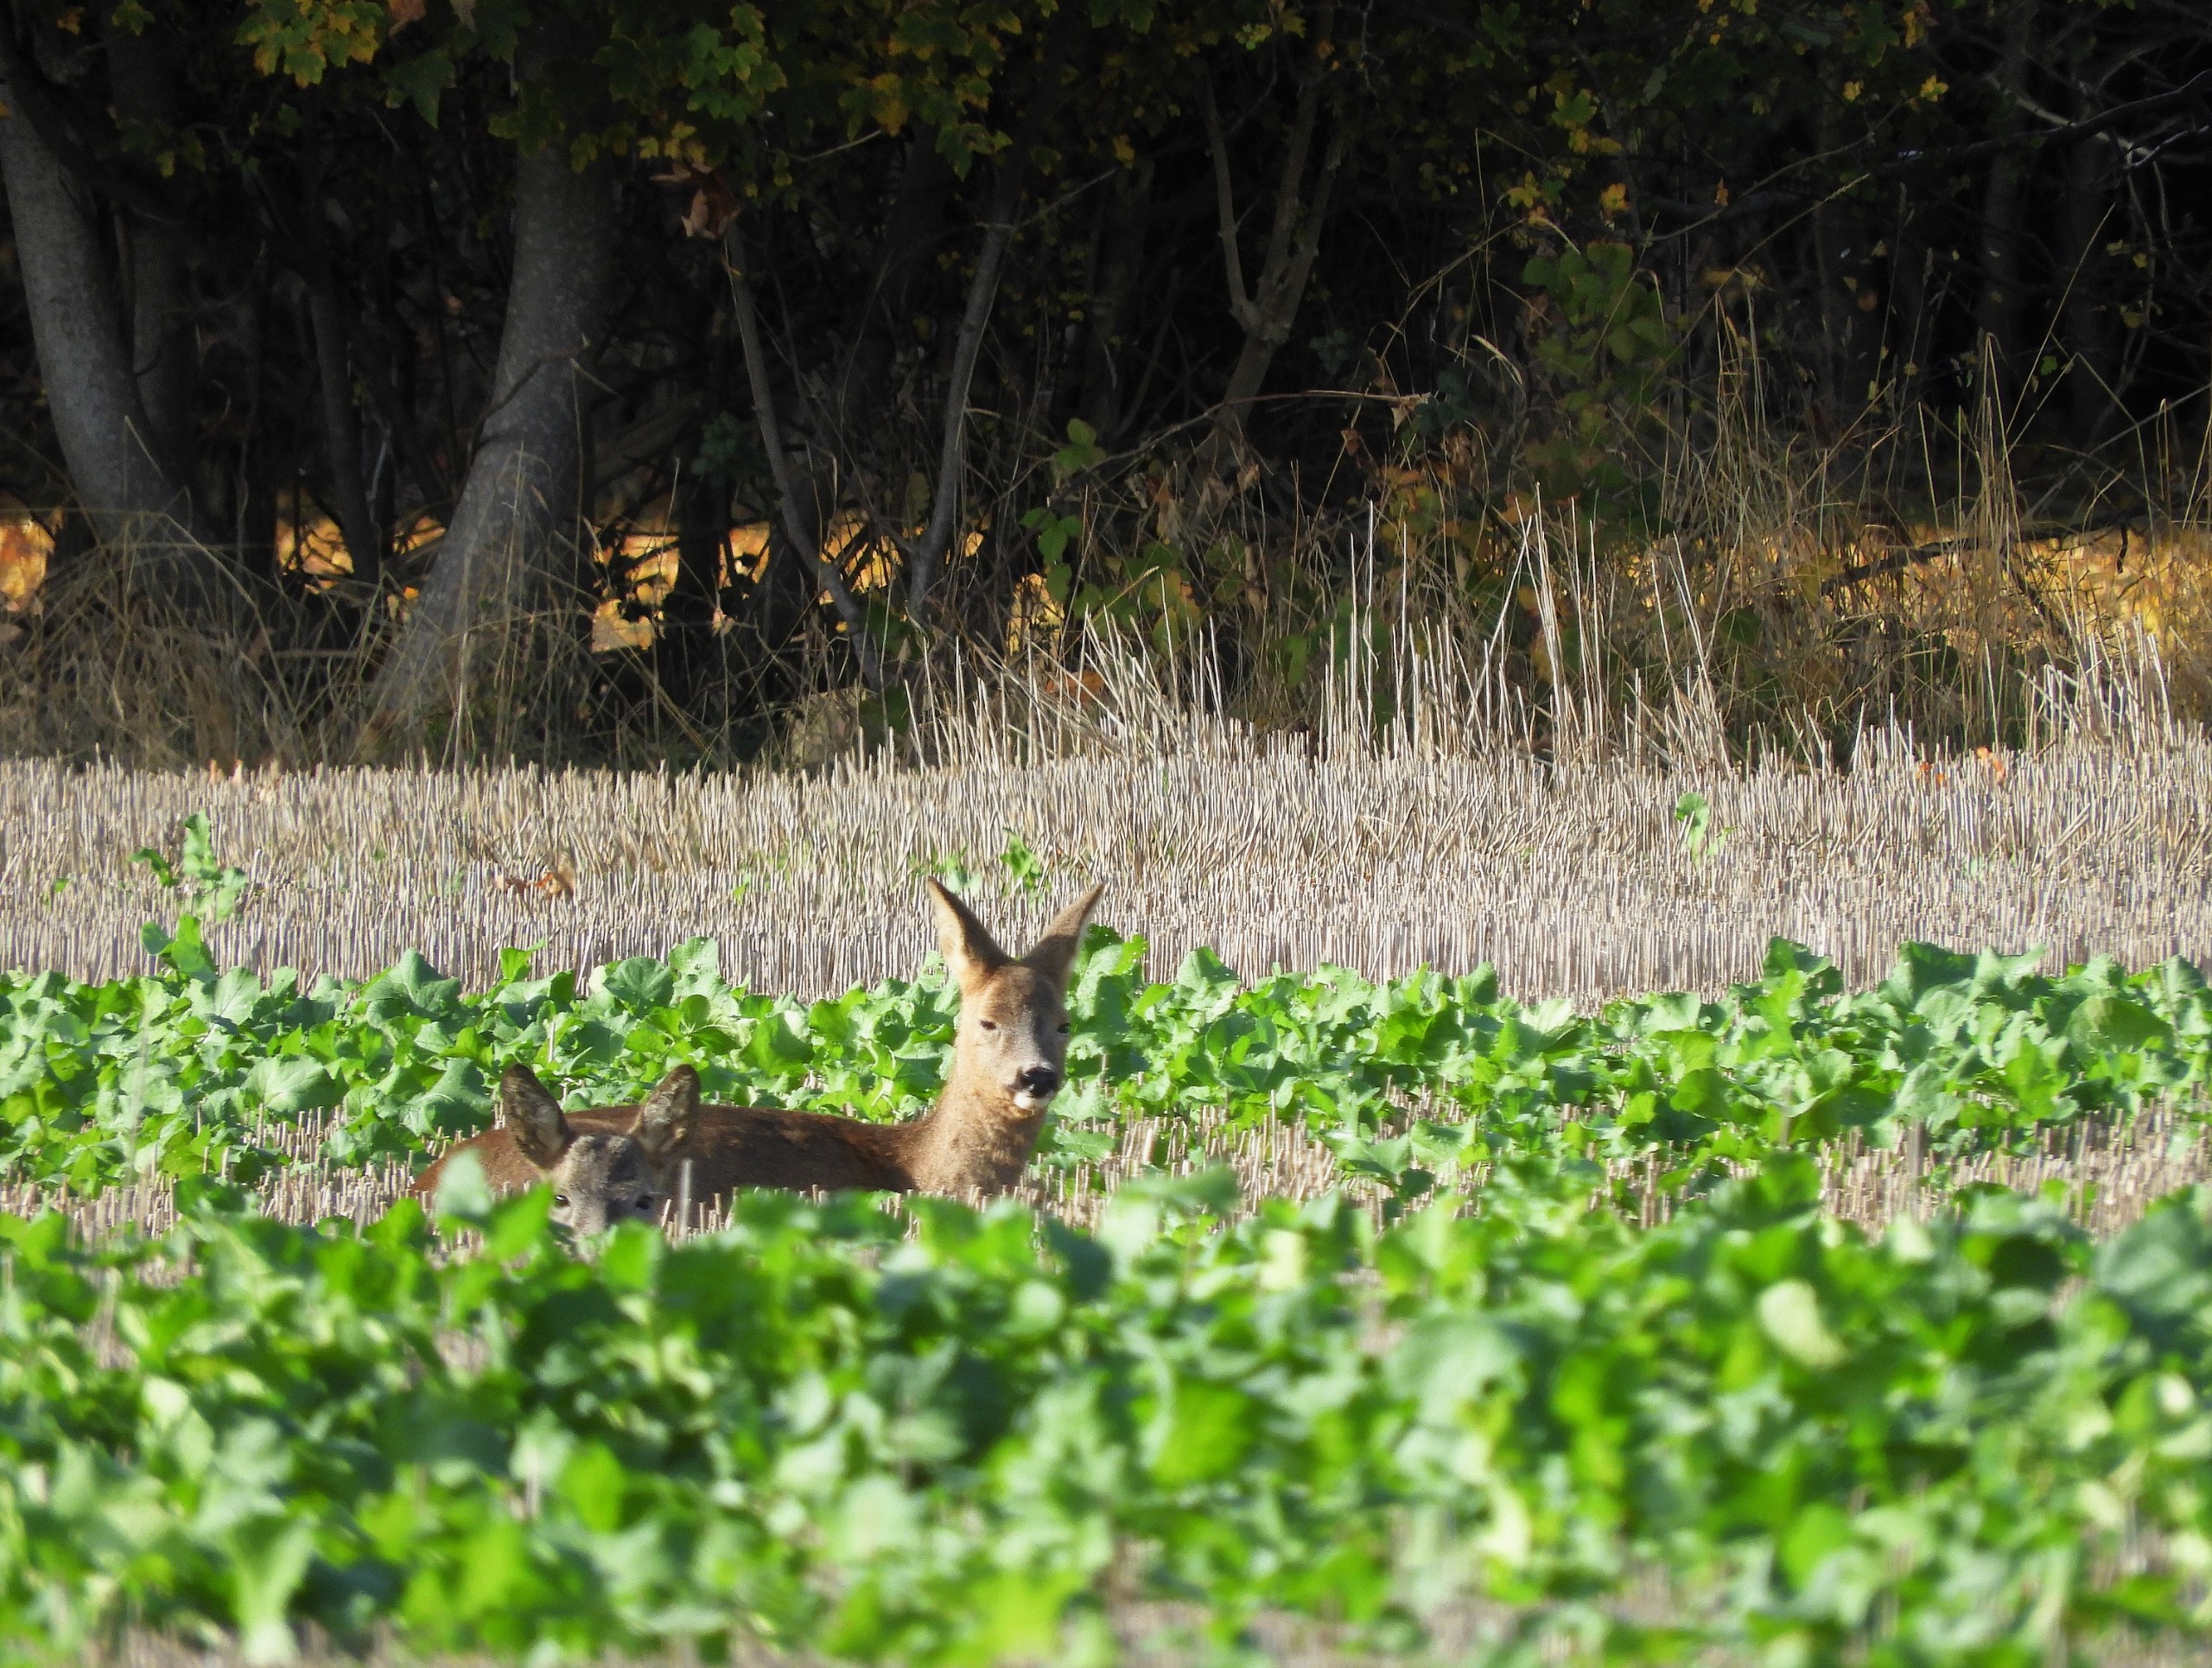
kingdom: Animalia
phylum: Chordata
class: Mammalia
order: Artiodactyla
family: Cervidae
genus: Capreolus
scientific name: Capreolus capreolus
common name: Rådyr
